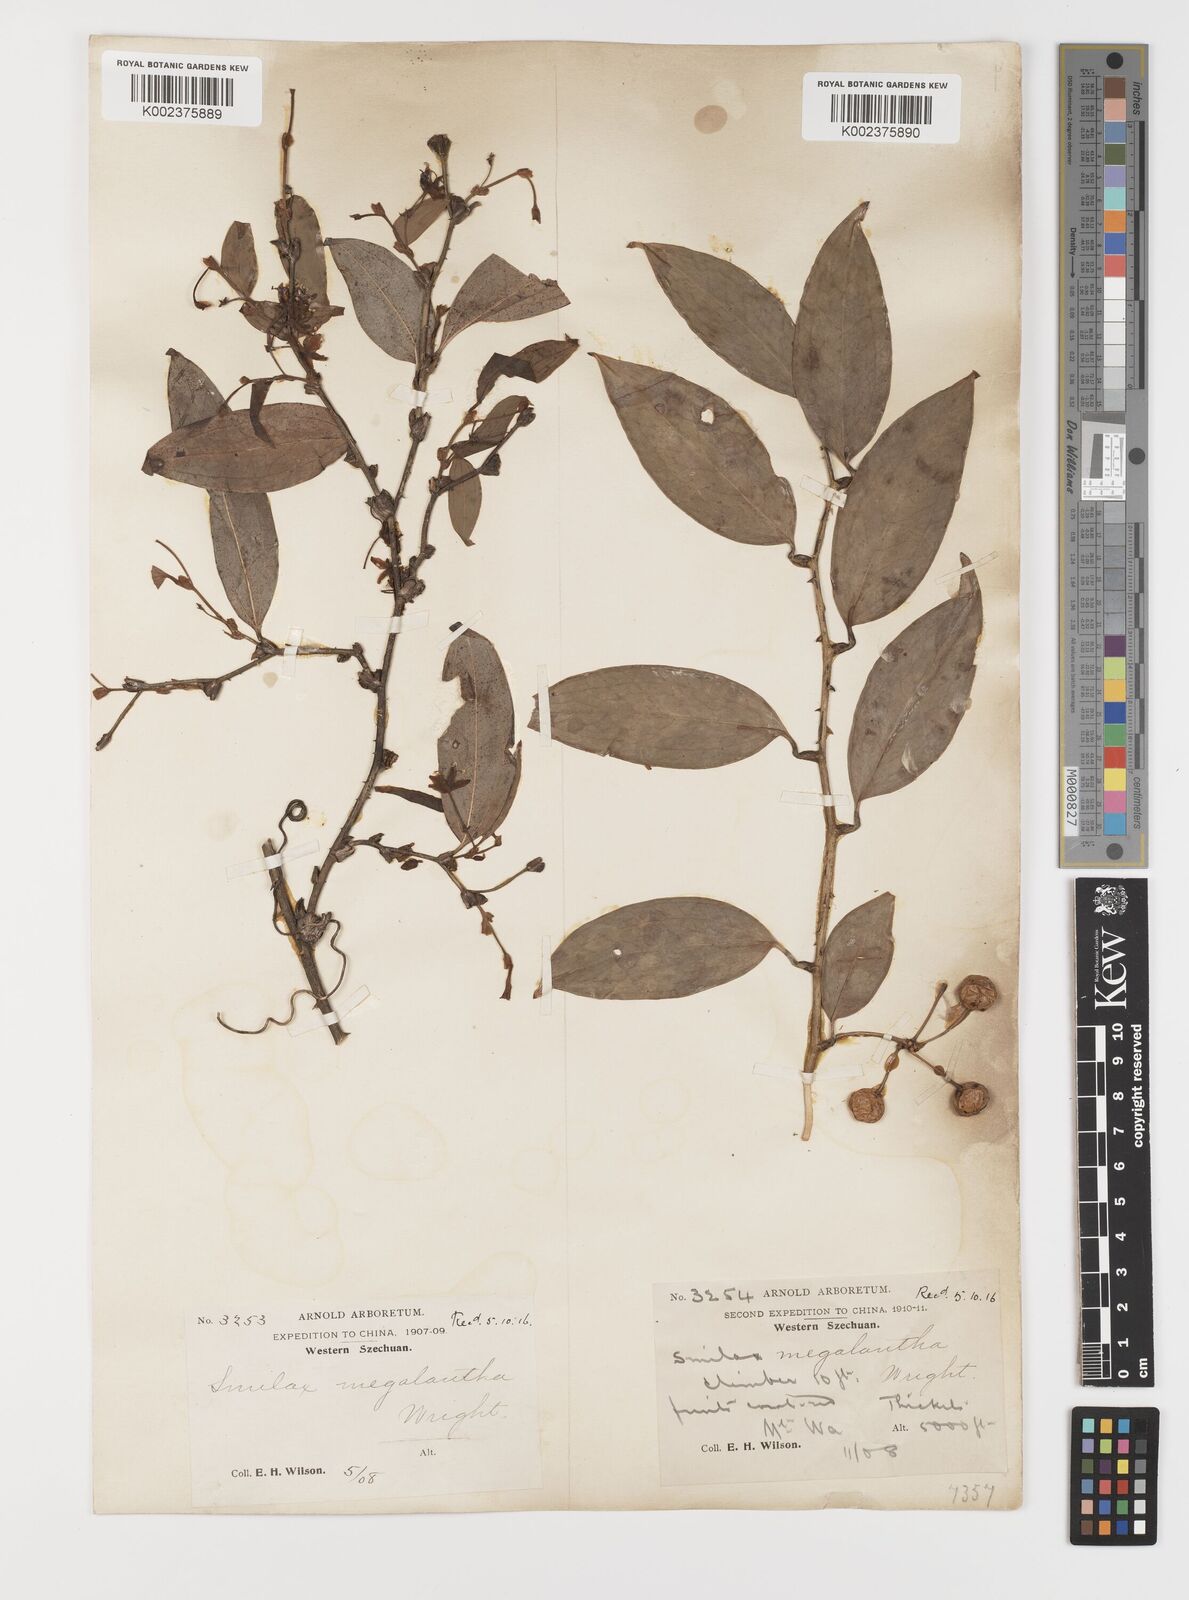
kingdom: Plantae
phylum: Tracheophyta
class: Liliopsida
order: Liliales
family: Smilacaceae
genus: Smilax
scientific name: Smilax megalantha
